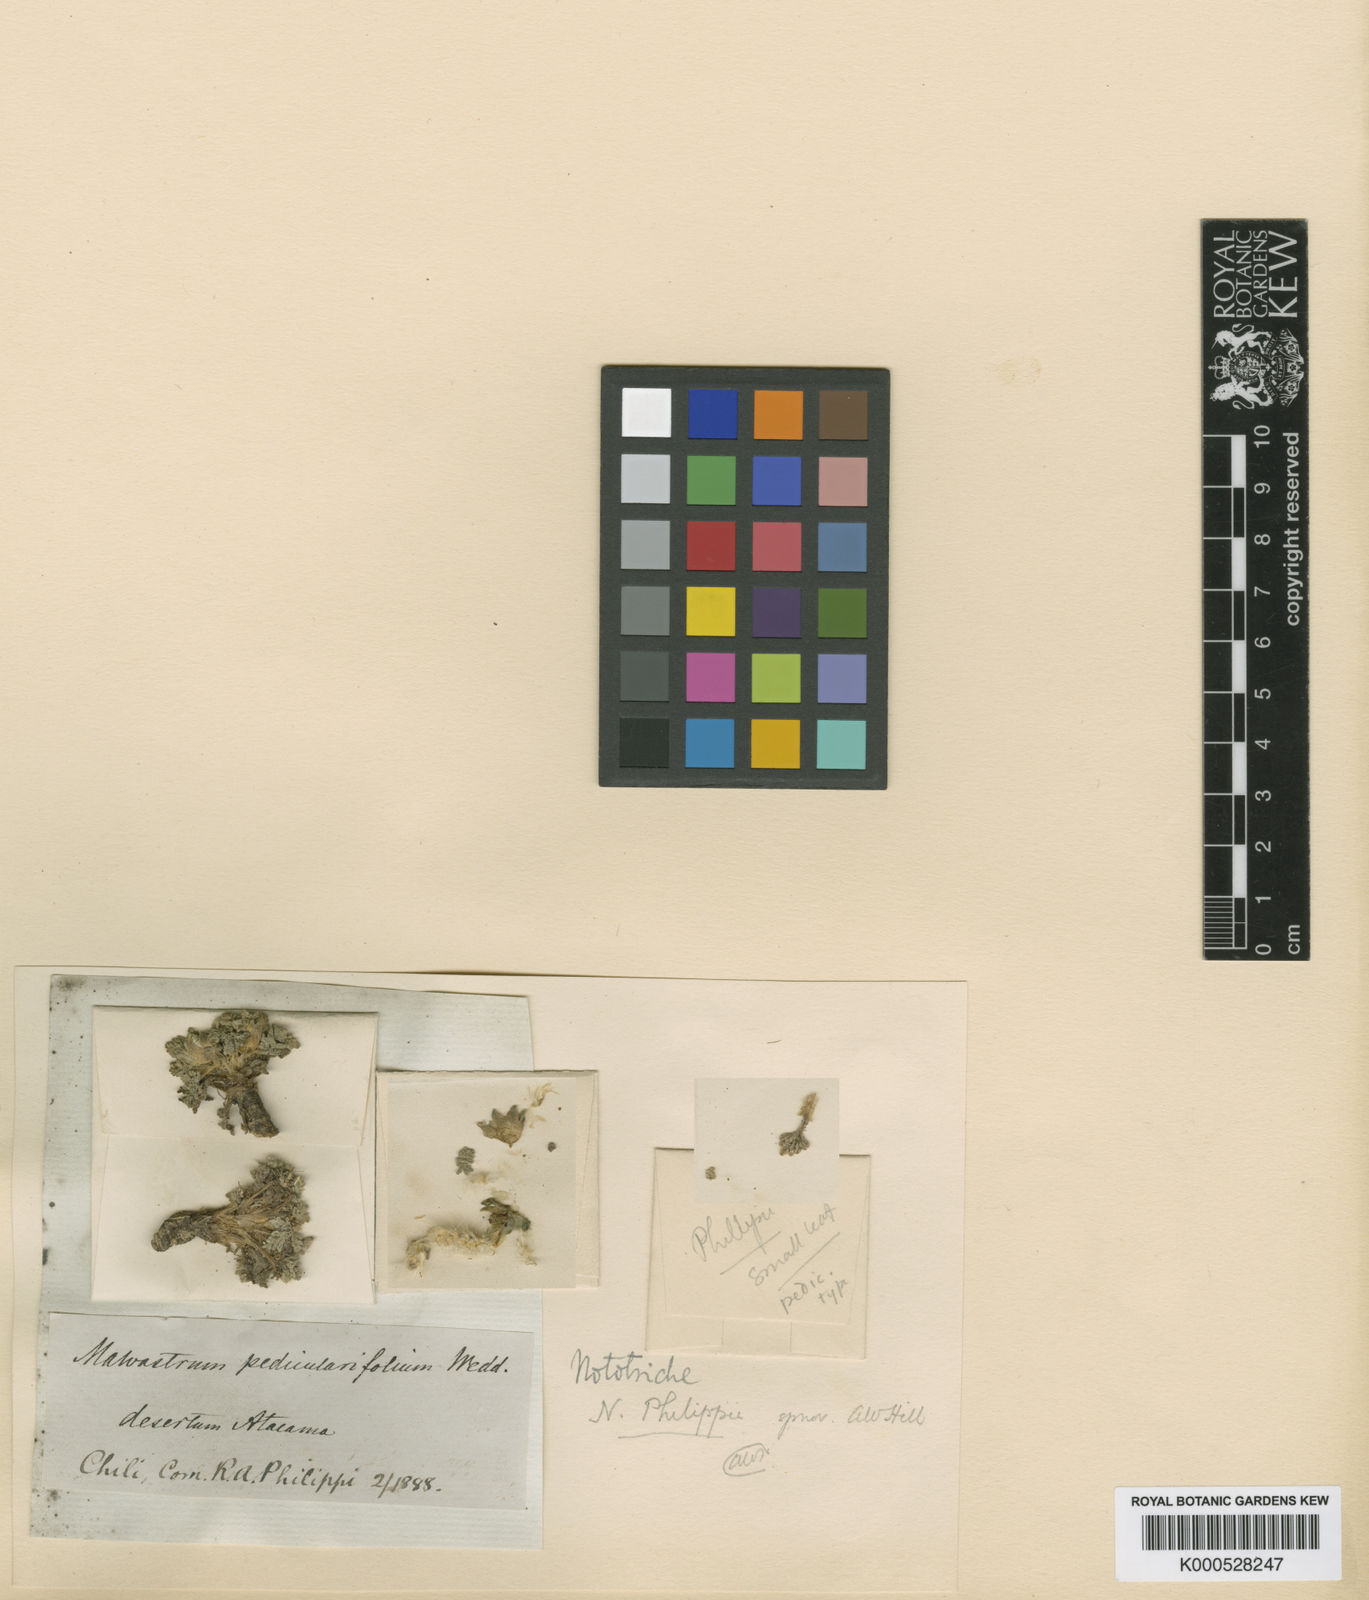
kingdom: Plantae
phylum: Tracheophyta
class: Magnoliopsida
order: Malvales
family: Malvaceae
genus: Nototriche
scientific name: Nototriche philippii
